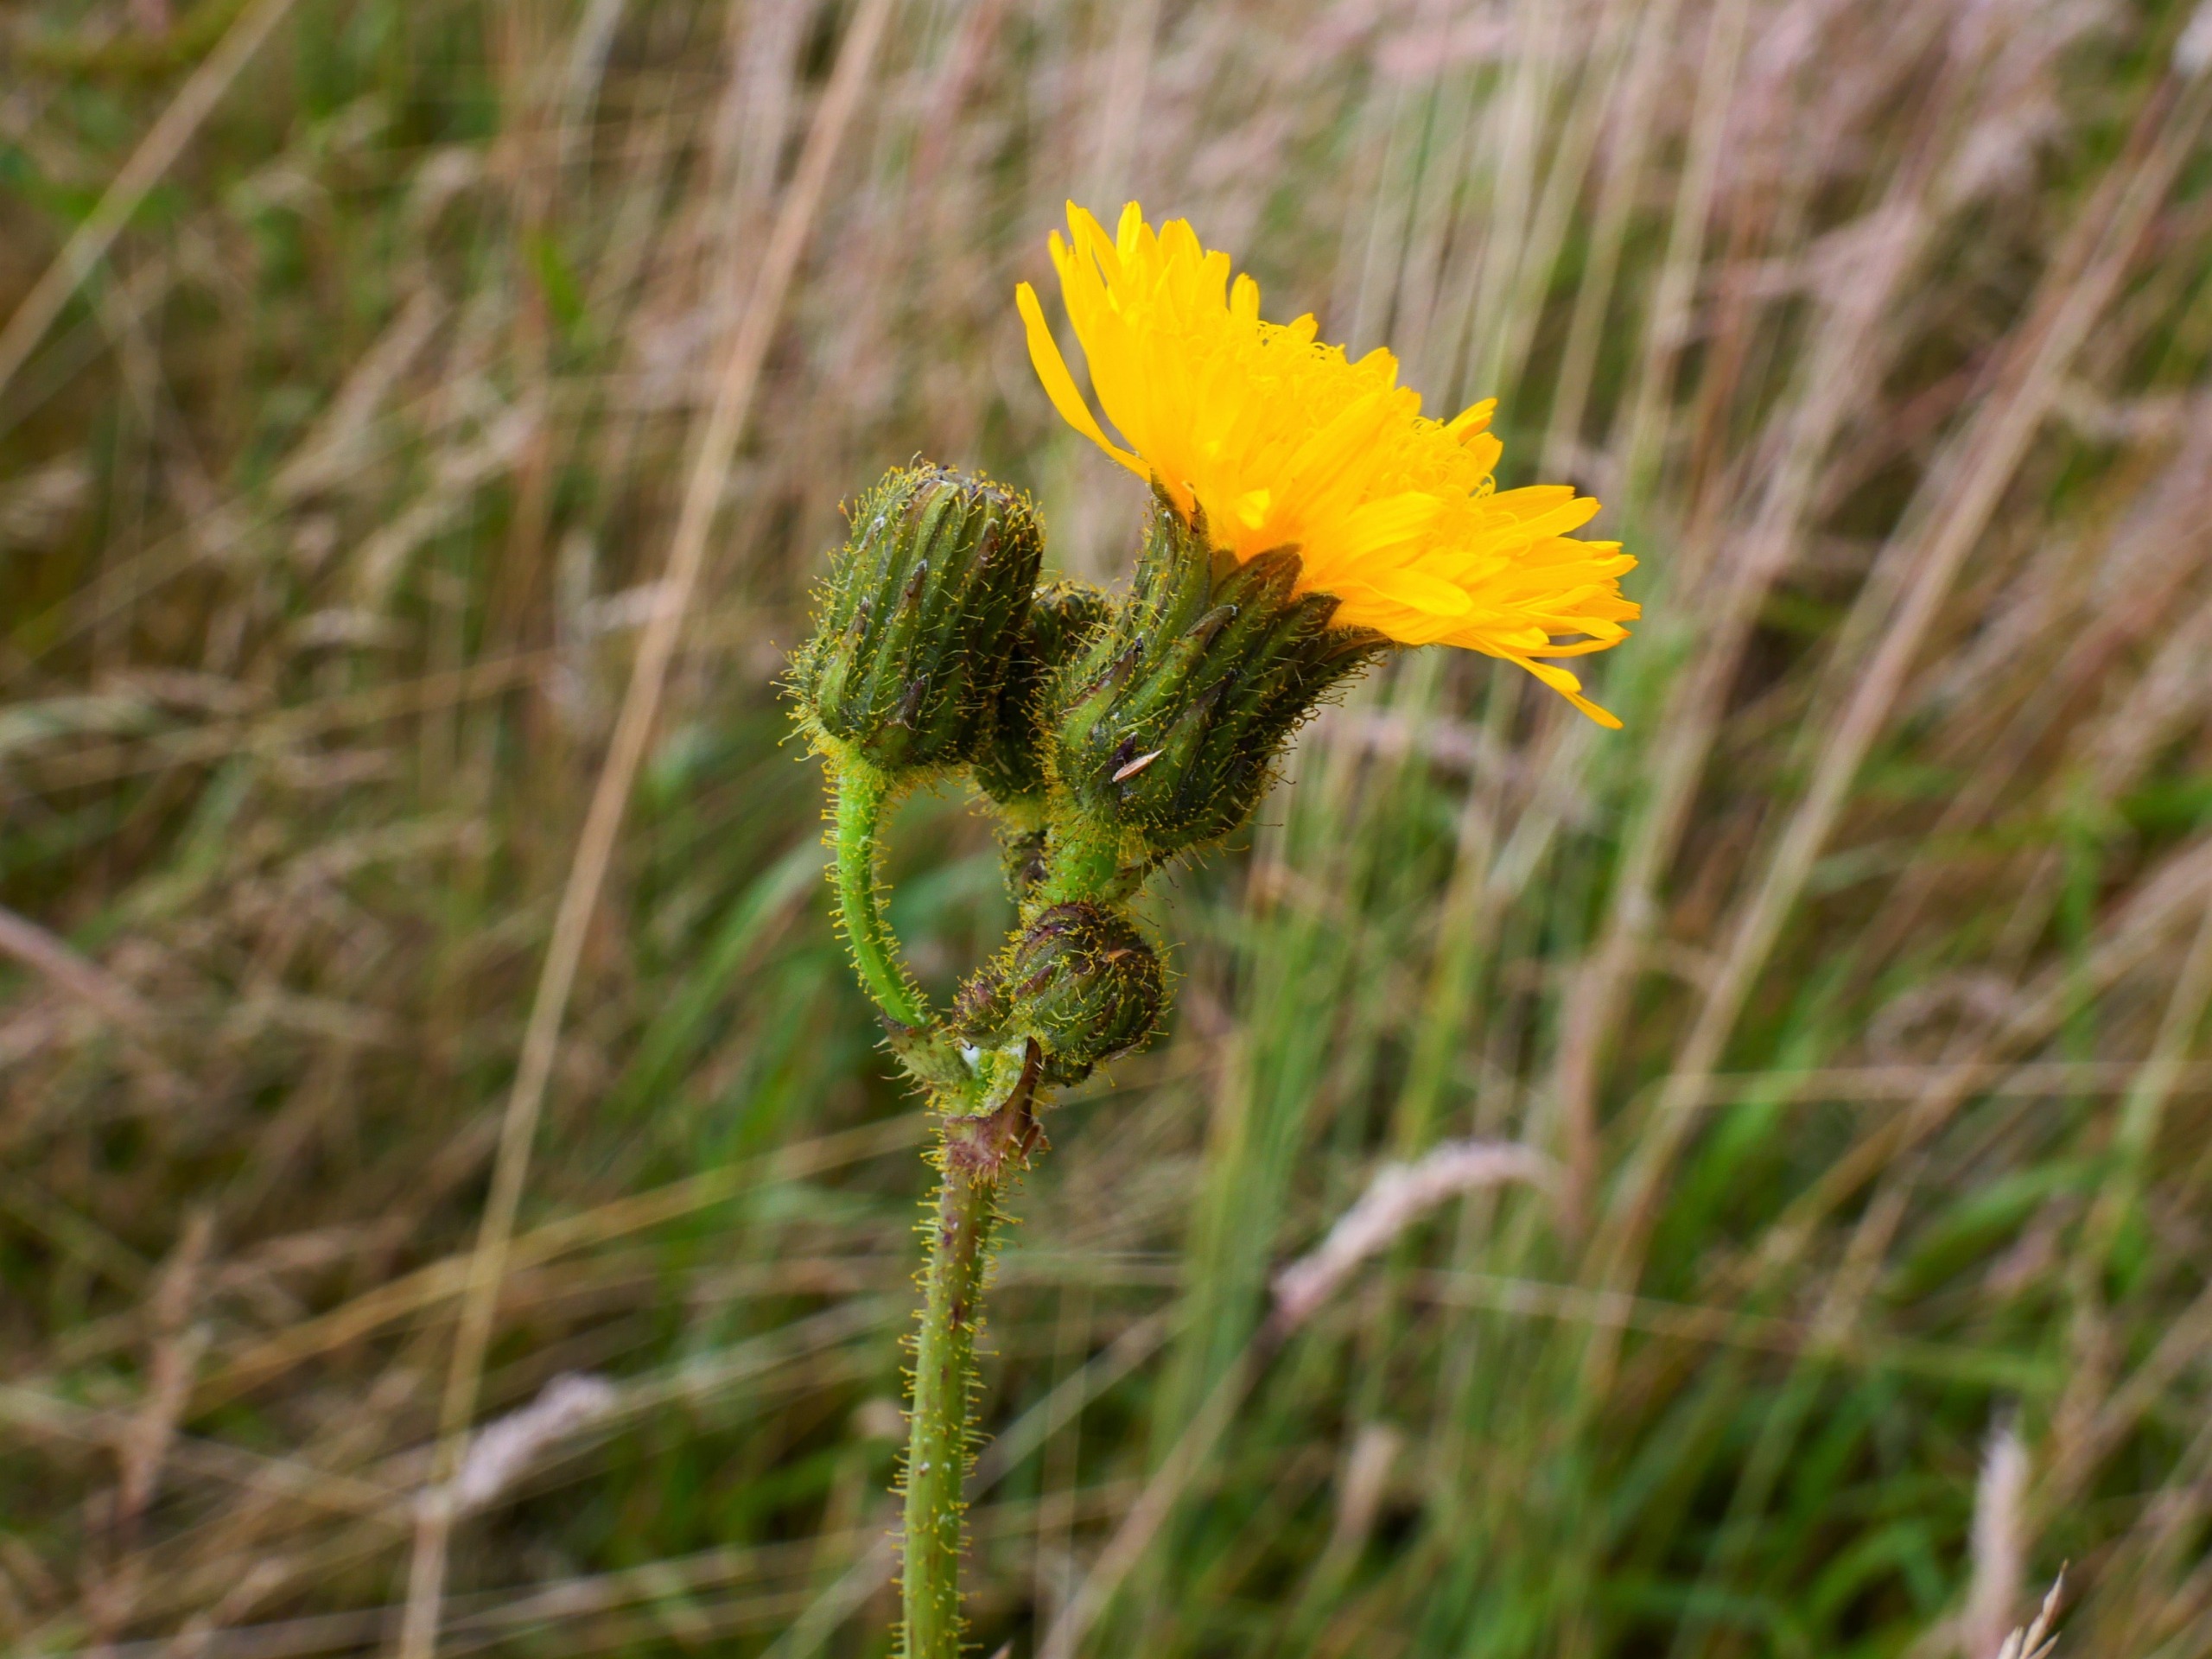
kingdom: Plantae
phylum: Tracheophyta
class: Magnoliopsida
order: Asterales
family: Asteraceae
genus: Sonchus
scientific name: Sonchus arvensis
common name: Ager-svinemælk
